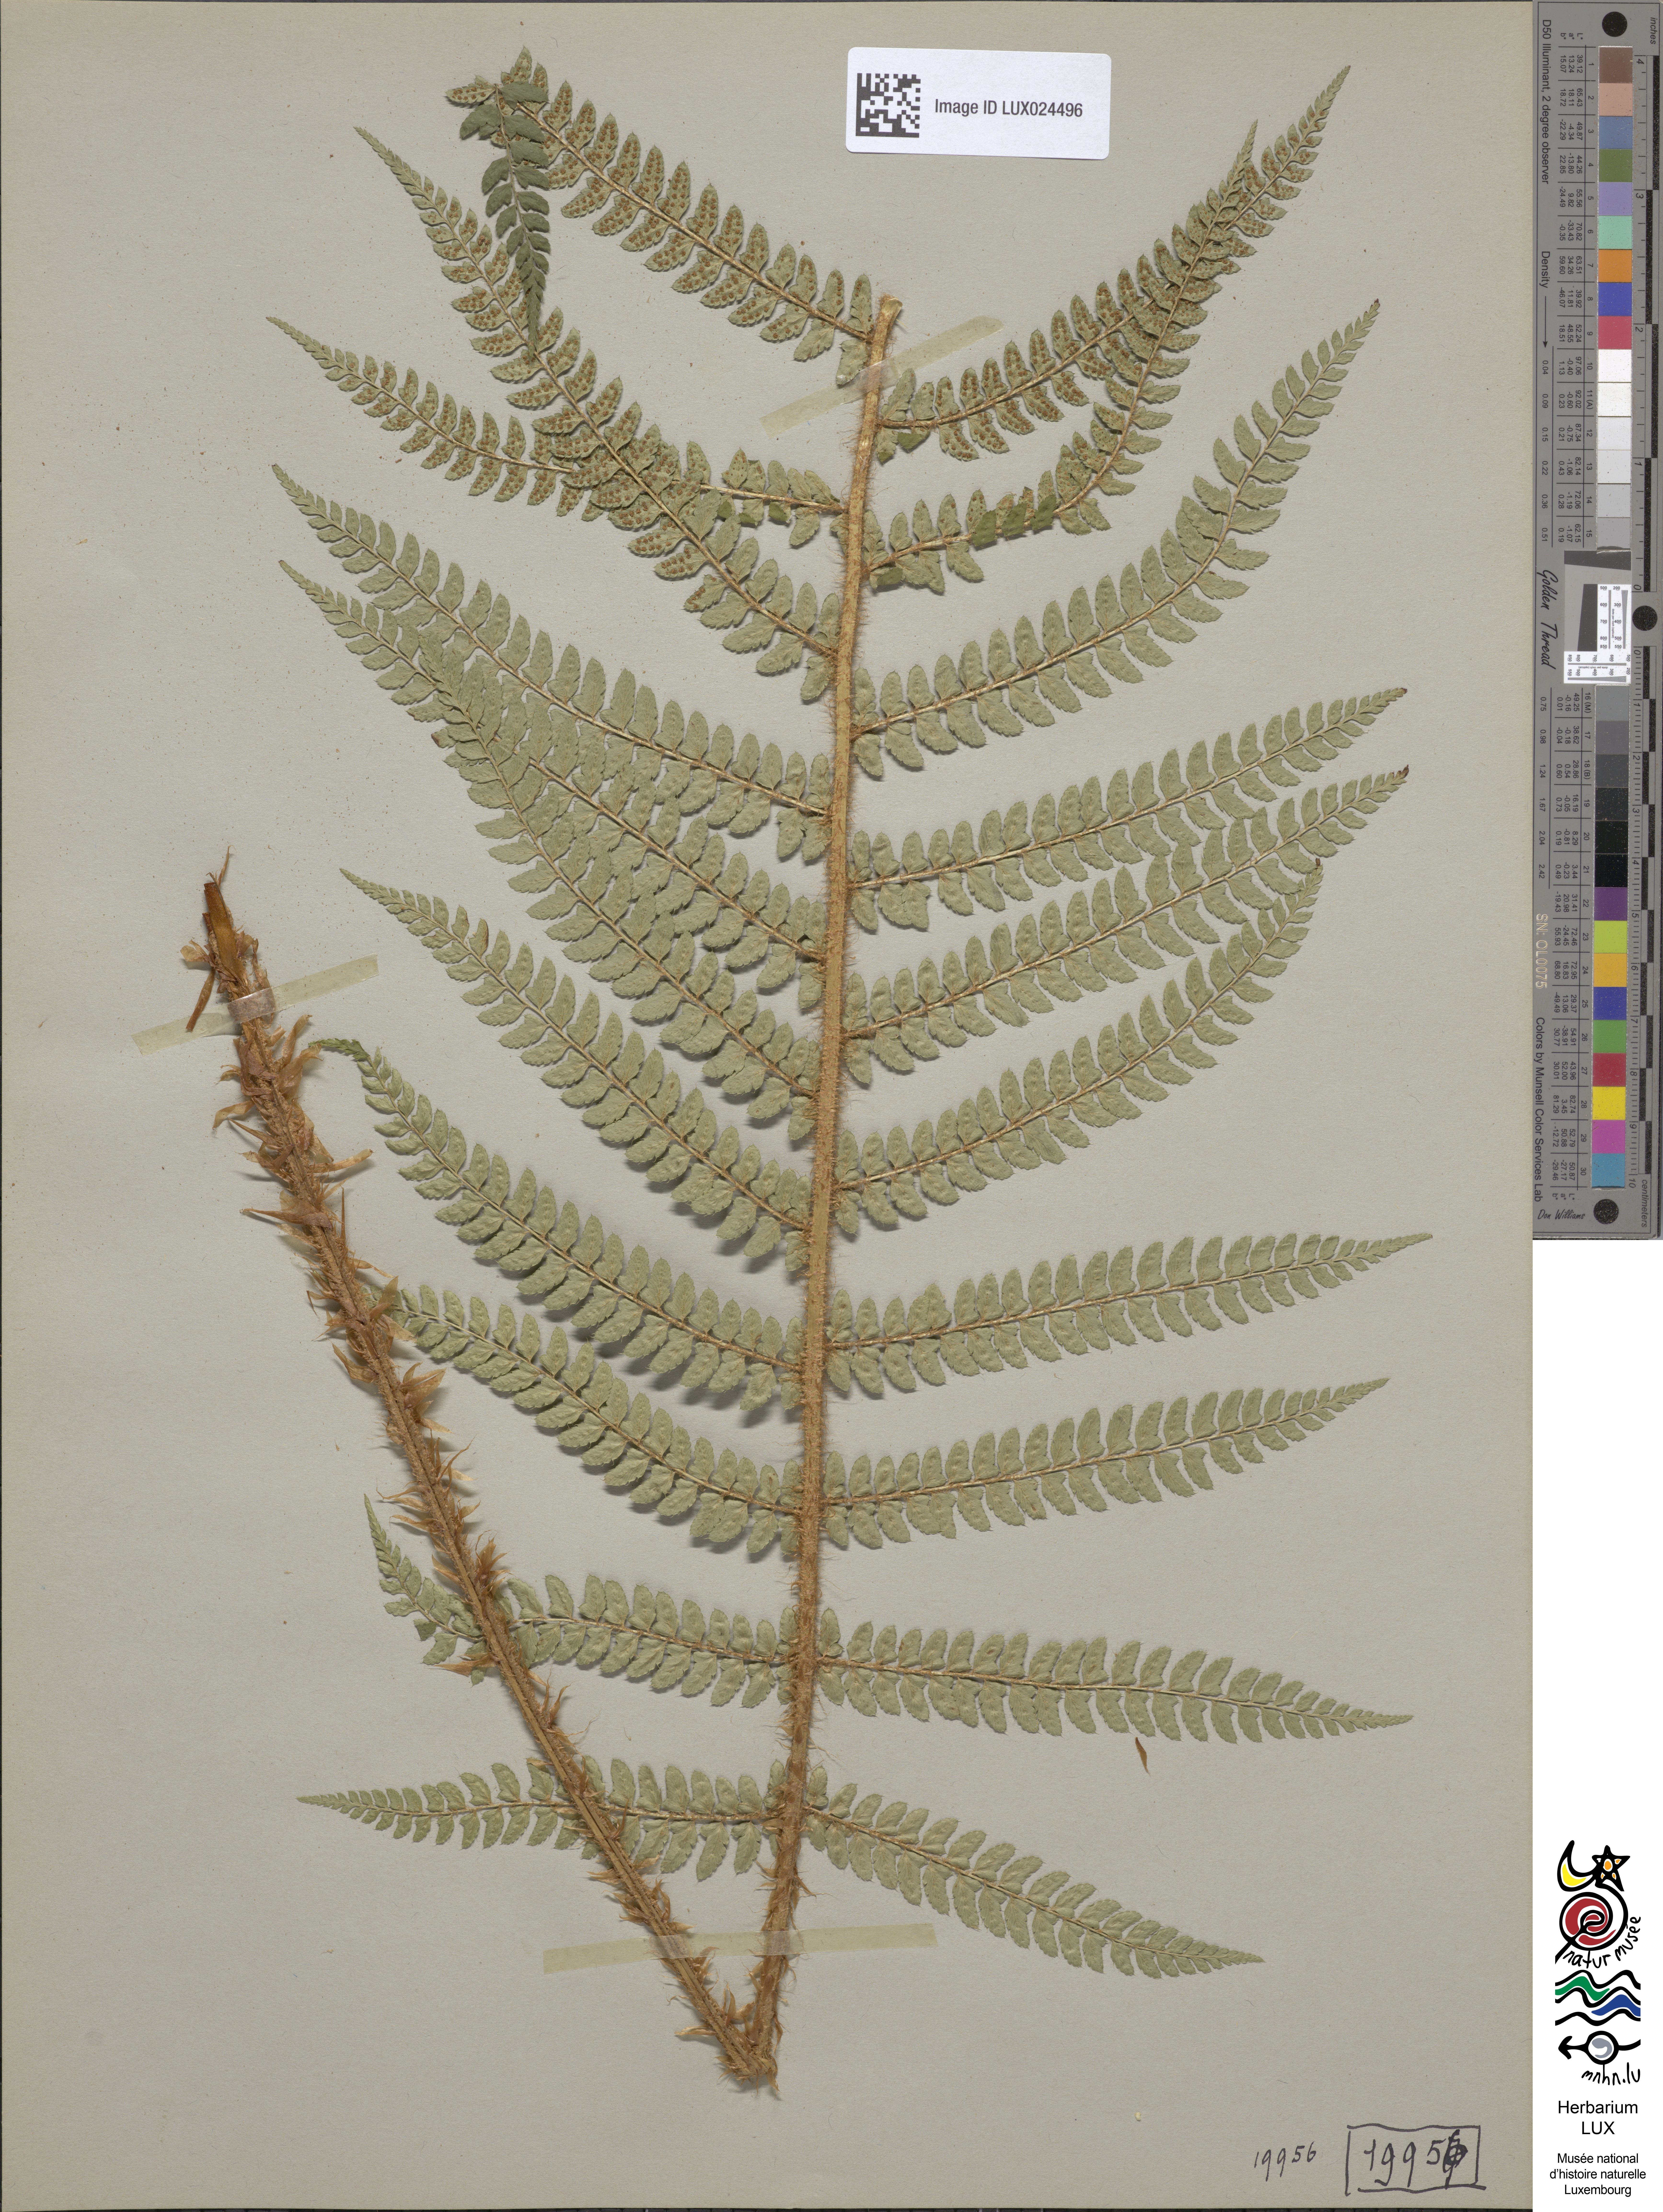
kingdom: Plantae
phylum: Tracheophyta
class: Polypodiopsida
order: Polypodiales
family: Dryopteridaceae
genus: Polystichum
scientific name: Polystichum setiferum
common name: Soft shield-fern
